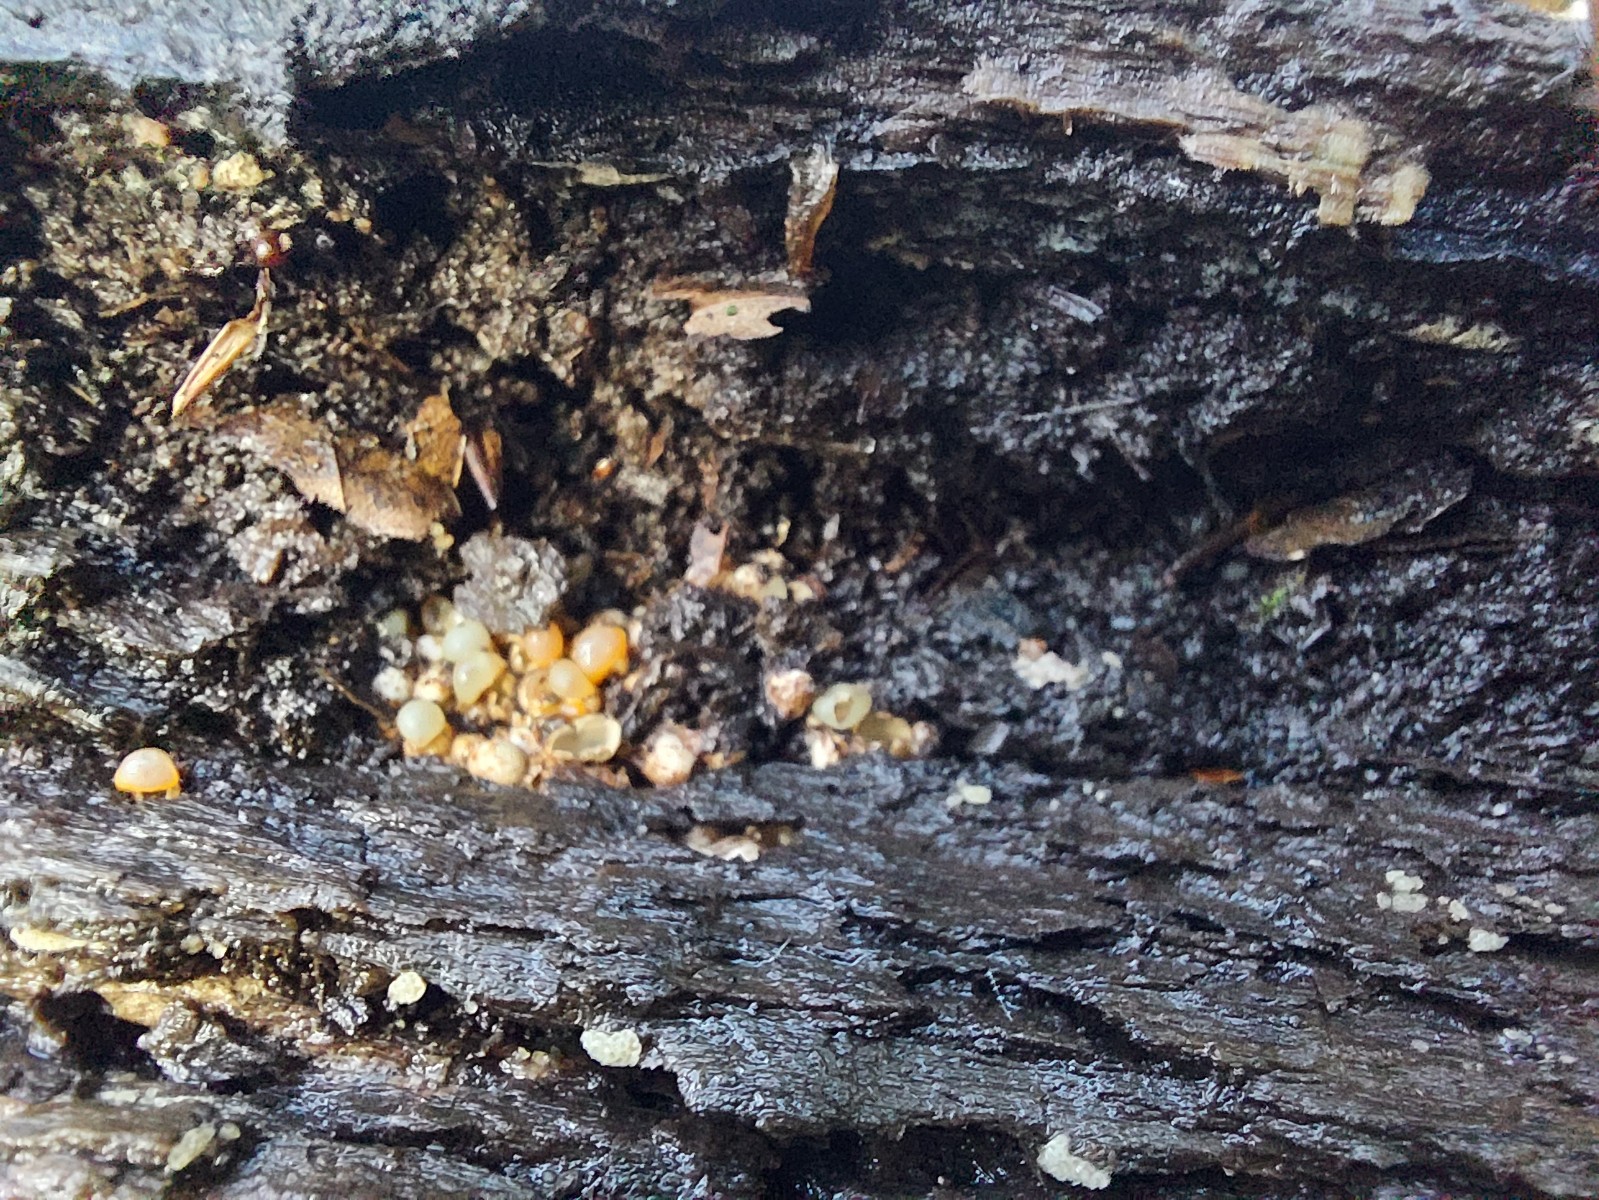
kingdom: Fungi
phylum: Basidiomycota
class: Agaricomycetes
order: Geastrales
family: Geastraceae
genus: Sphaerobolus
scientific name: Sphaerobolus stellatus
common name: bombekaster
